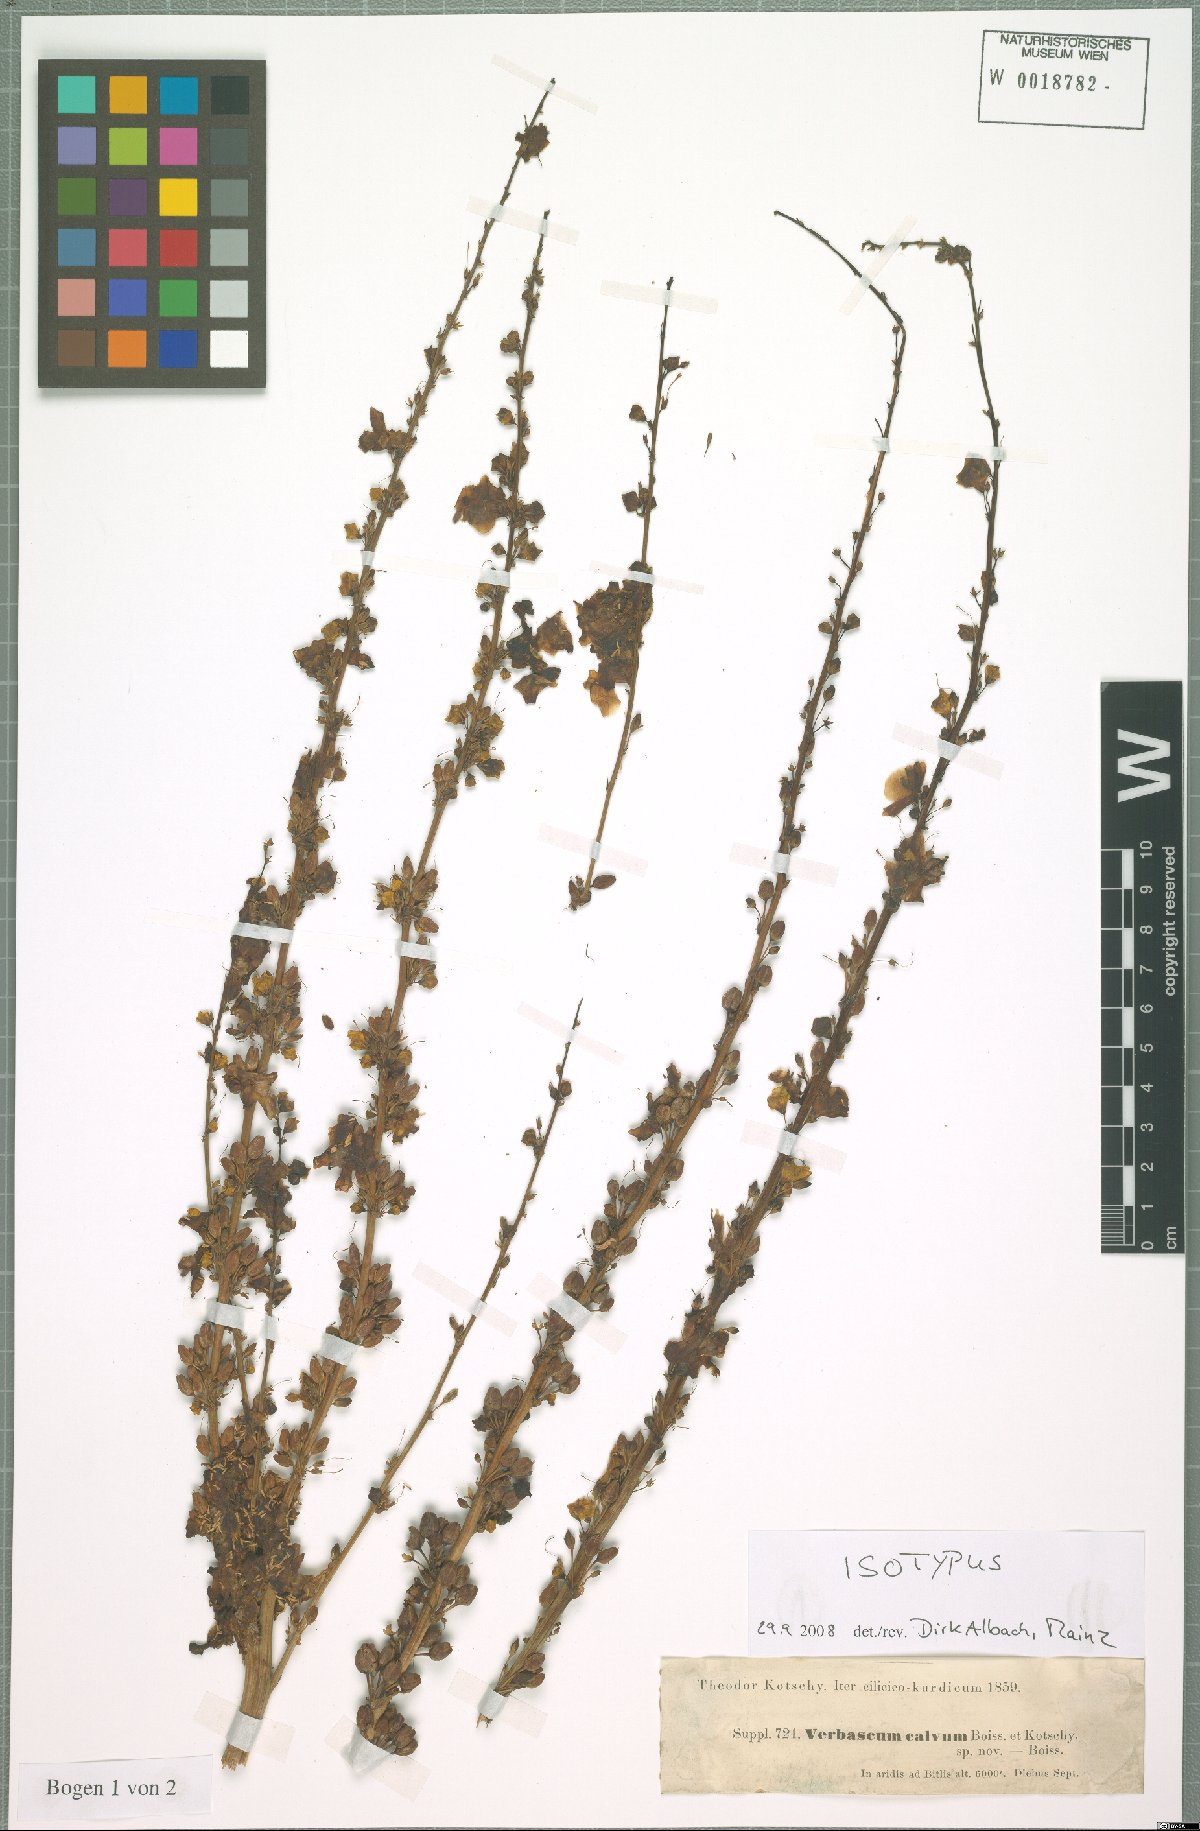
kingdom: Plantae
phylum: Tracheophyta
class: Magnoliopsida
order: Lamiales
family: Scrophulariaceae
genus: Verbascum
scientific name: Verbascum calvum
